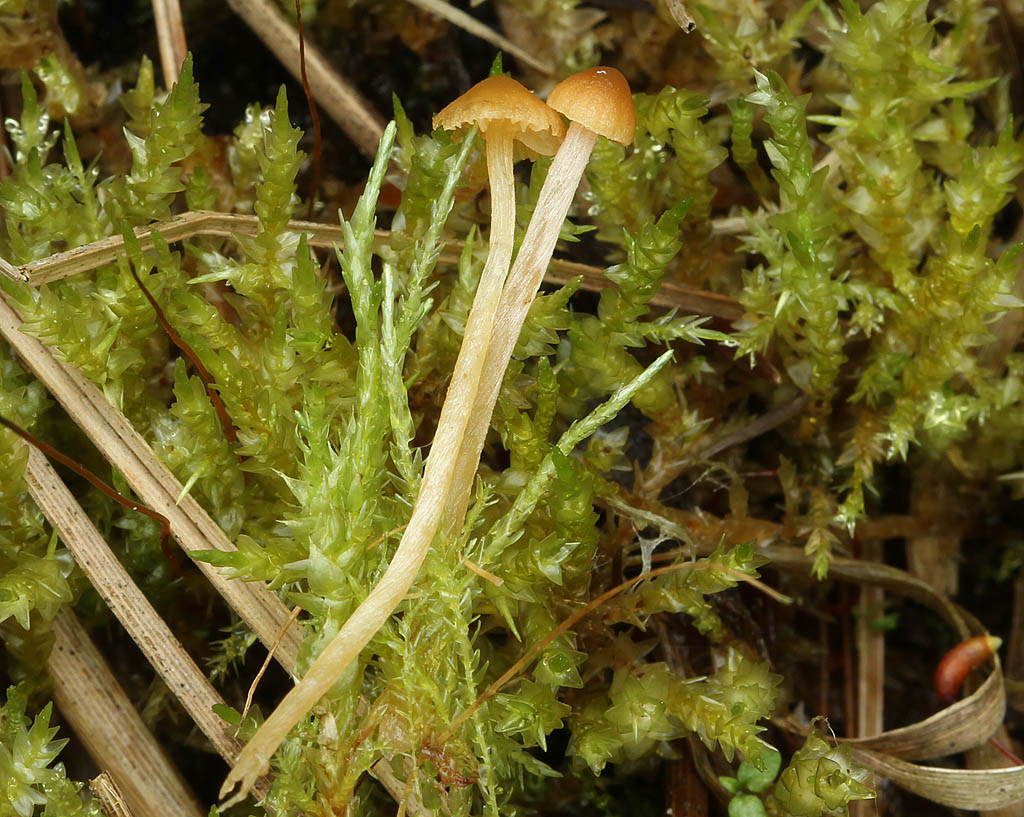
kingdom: Fungi
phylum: Basidiomycota
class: Agaricomycetes
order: Agaricales
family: Hymenogastraceae
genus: Galerina
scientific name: Galerina clavata
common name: kær-hjelmhat
